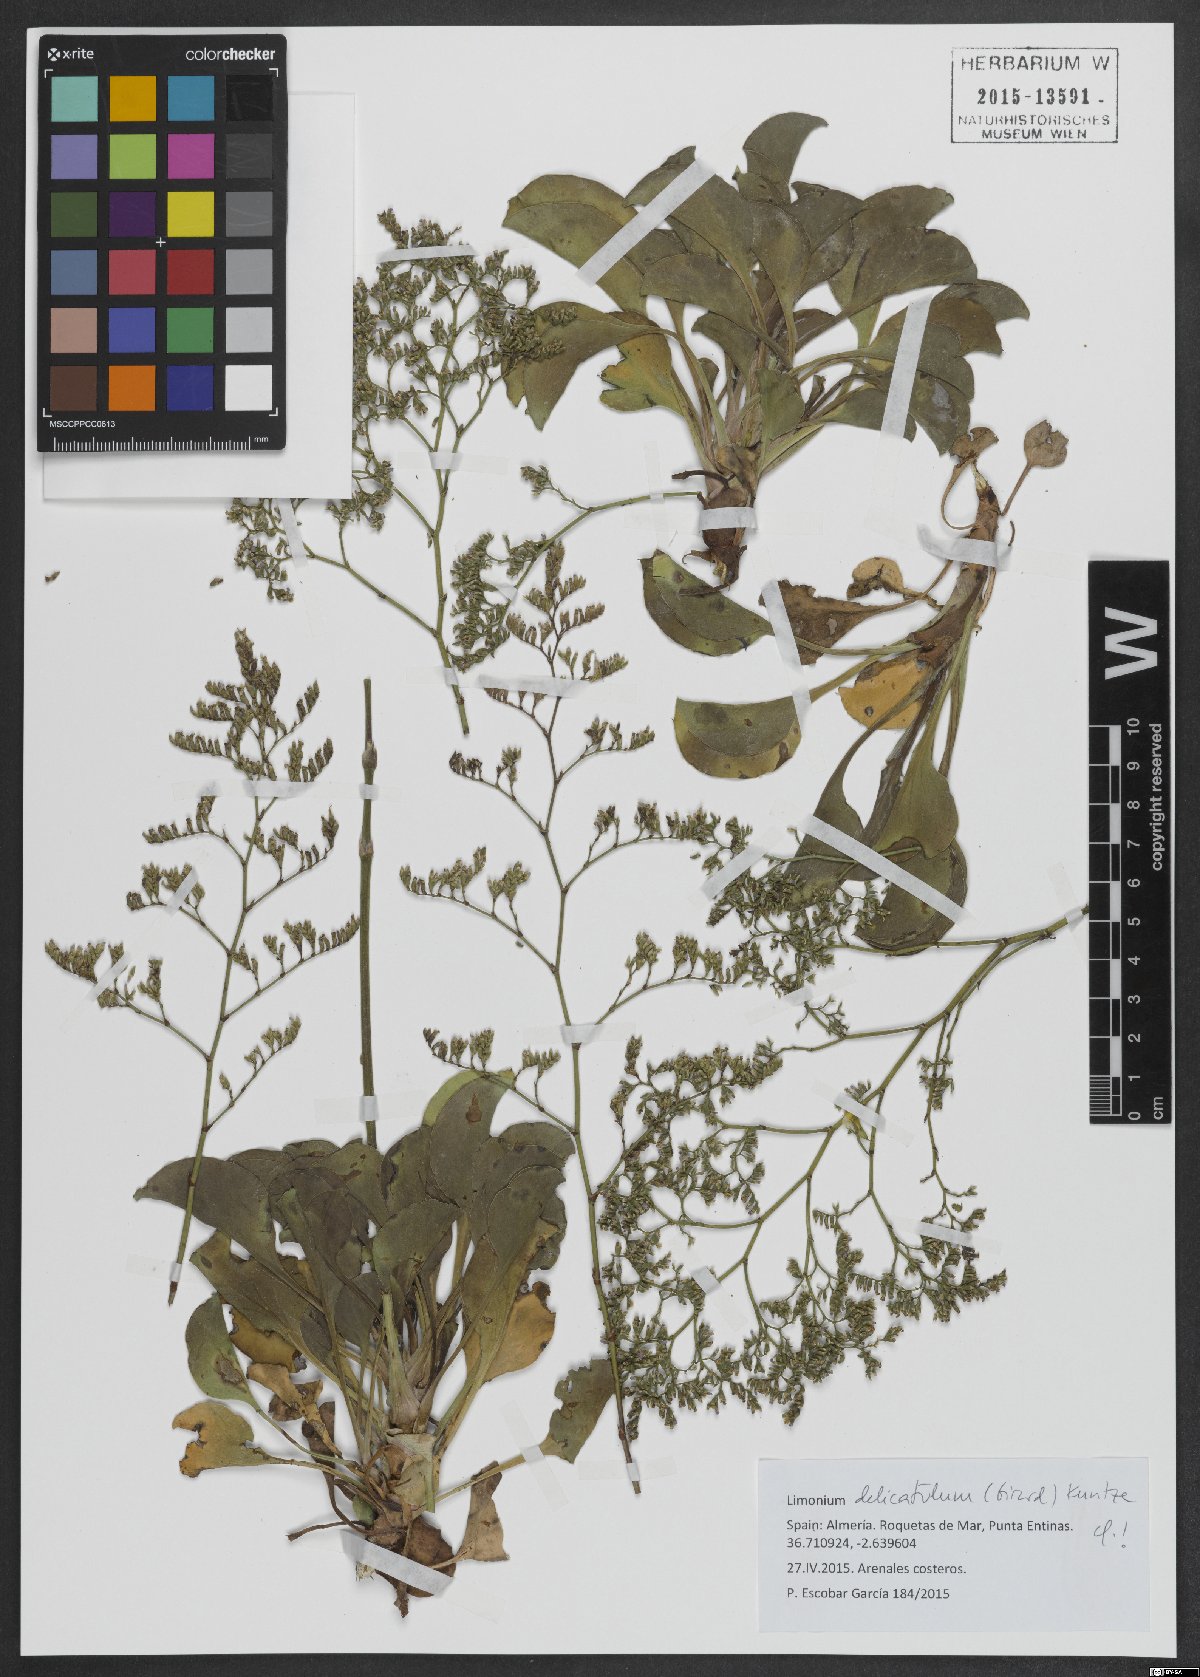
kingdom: Plantae
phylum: Tracheophyta
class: Magnoliopsida
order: Caryophyllales
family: Plumbaginaceae
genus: Limonium
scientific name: Limonium delicatulum
